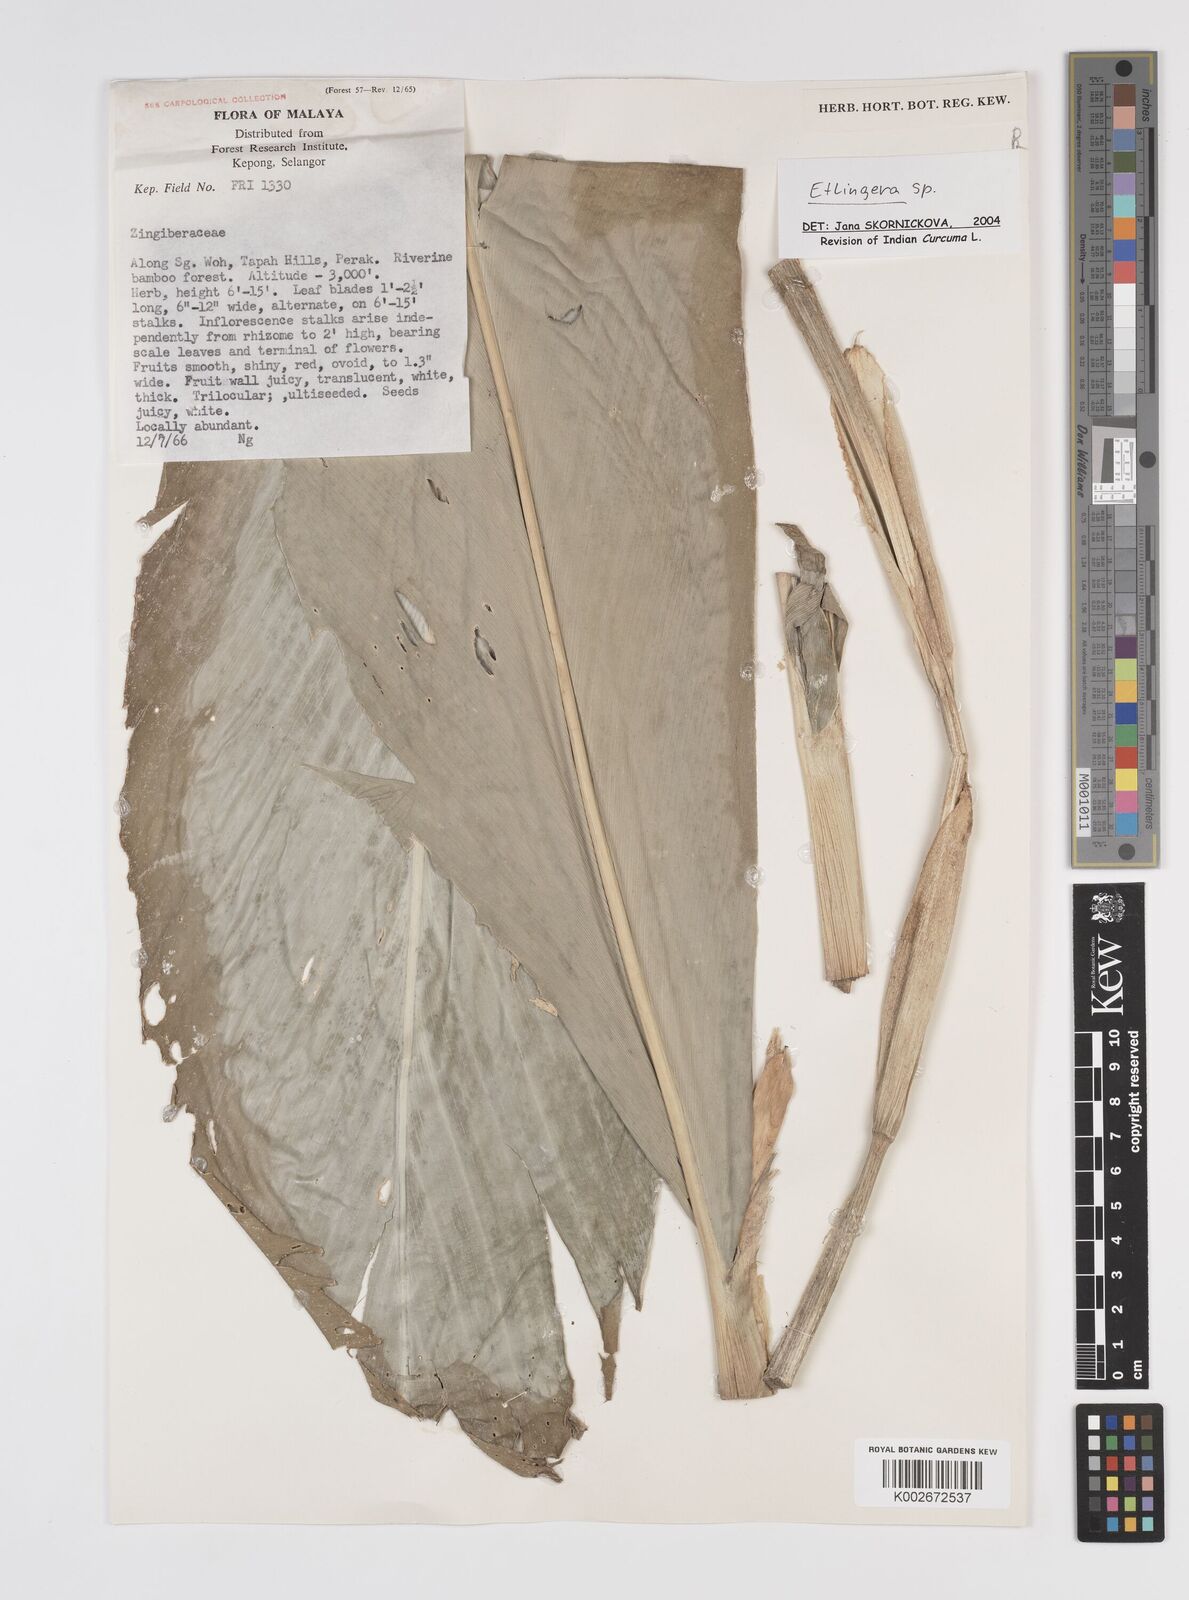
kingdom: Plantae
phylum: Tracheophyta
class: Liliopsida
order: Zingiberales
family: Zingiberaceae
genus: Etlingera
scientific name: Etlingera
